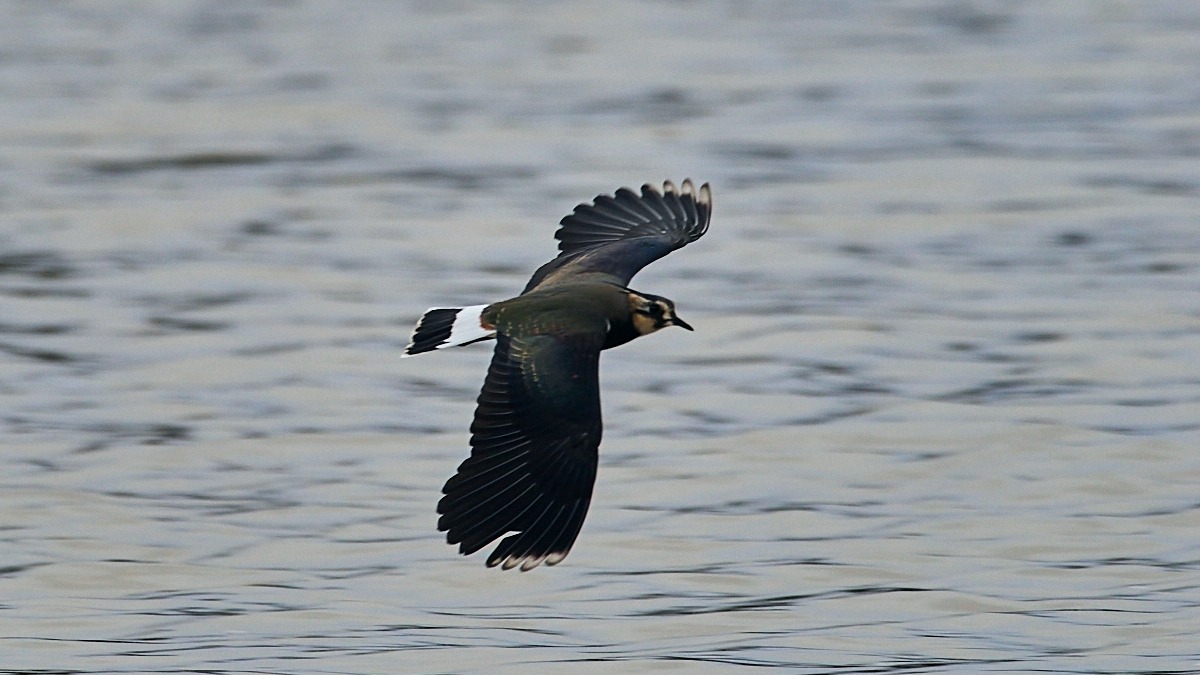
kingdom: Animalia
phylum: Chordata
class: Aves
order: Charadriiformes
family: Charadriidae
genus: Vanellus
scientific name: Vanellus vanellus
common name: Vibe
